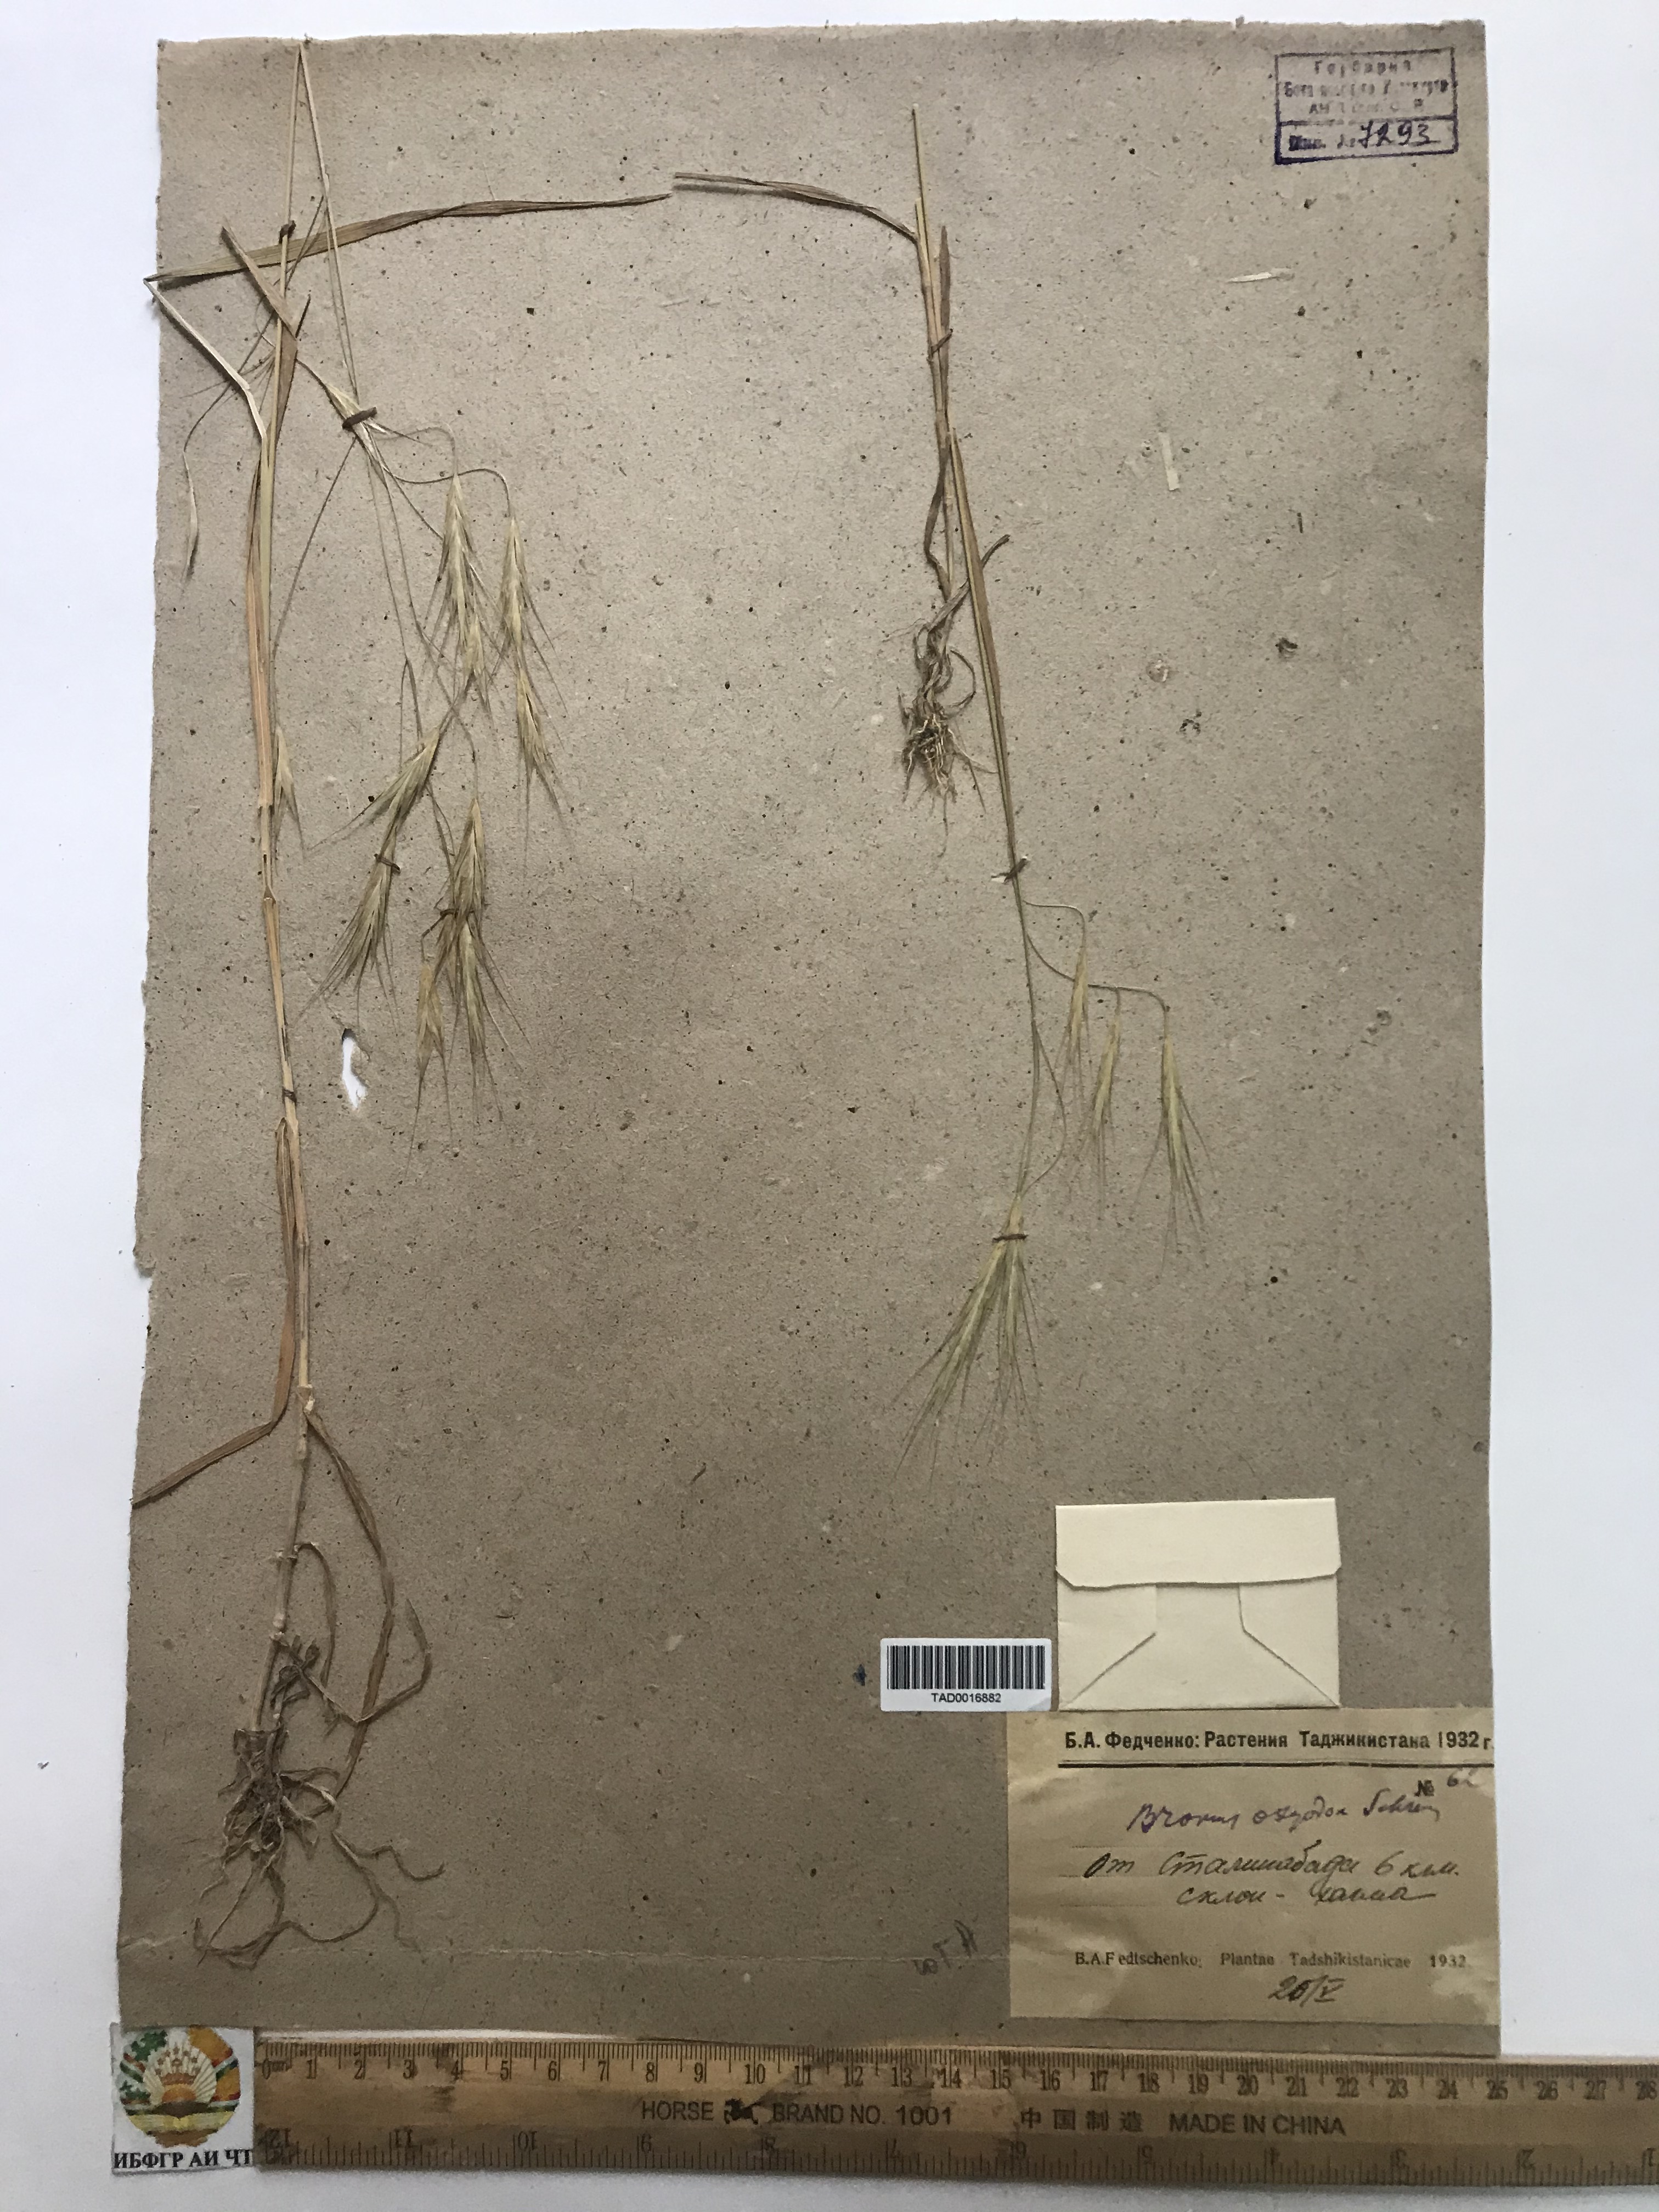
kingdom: Plantae
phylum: Tracheophyta
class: Liliopsida
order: Poales
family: Poaceae
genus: Bromus
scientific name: Bromus oxyodon
